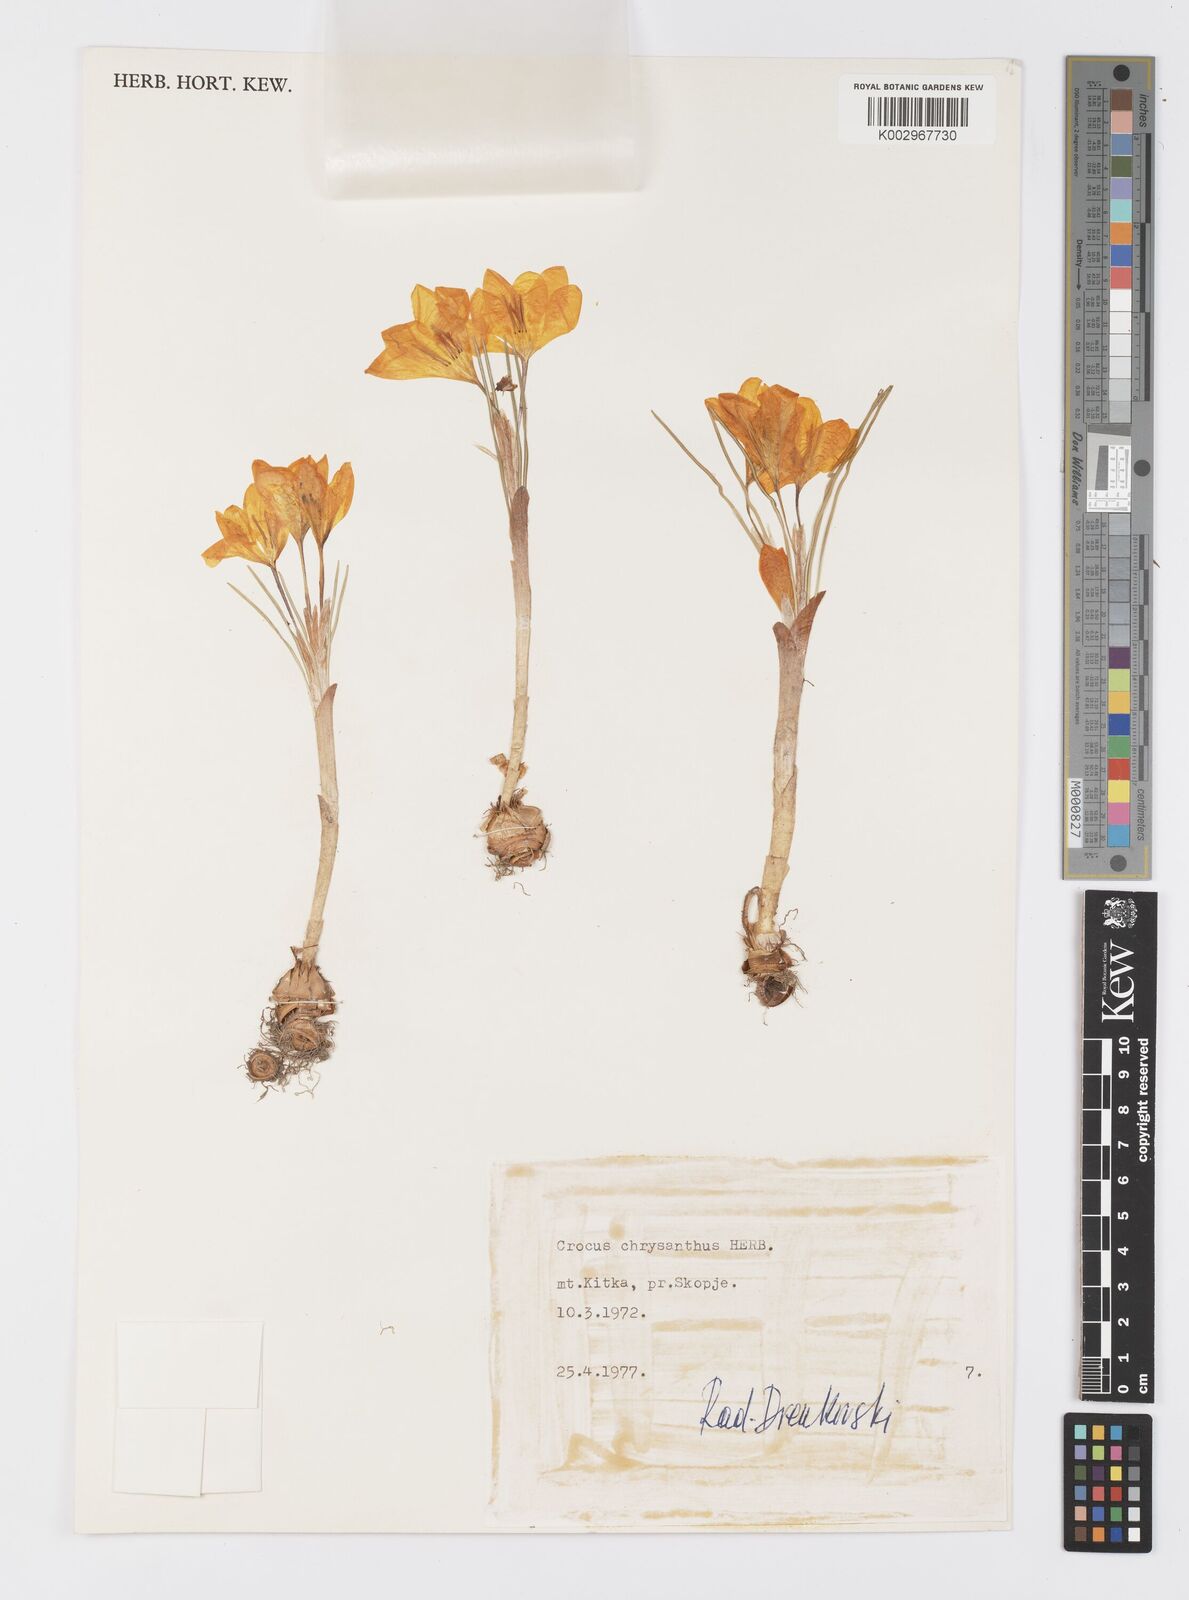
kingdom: Plantae
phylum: Tracheophyta
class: Liliopsida
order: Asparagales
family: Iridaceae
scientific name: Iridaceae
